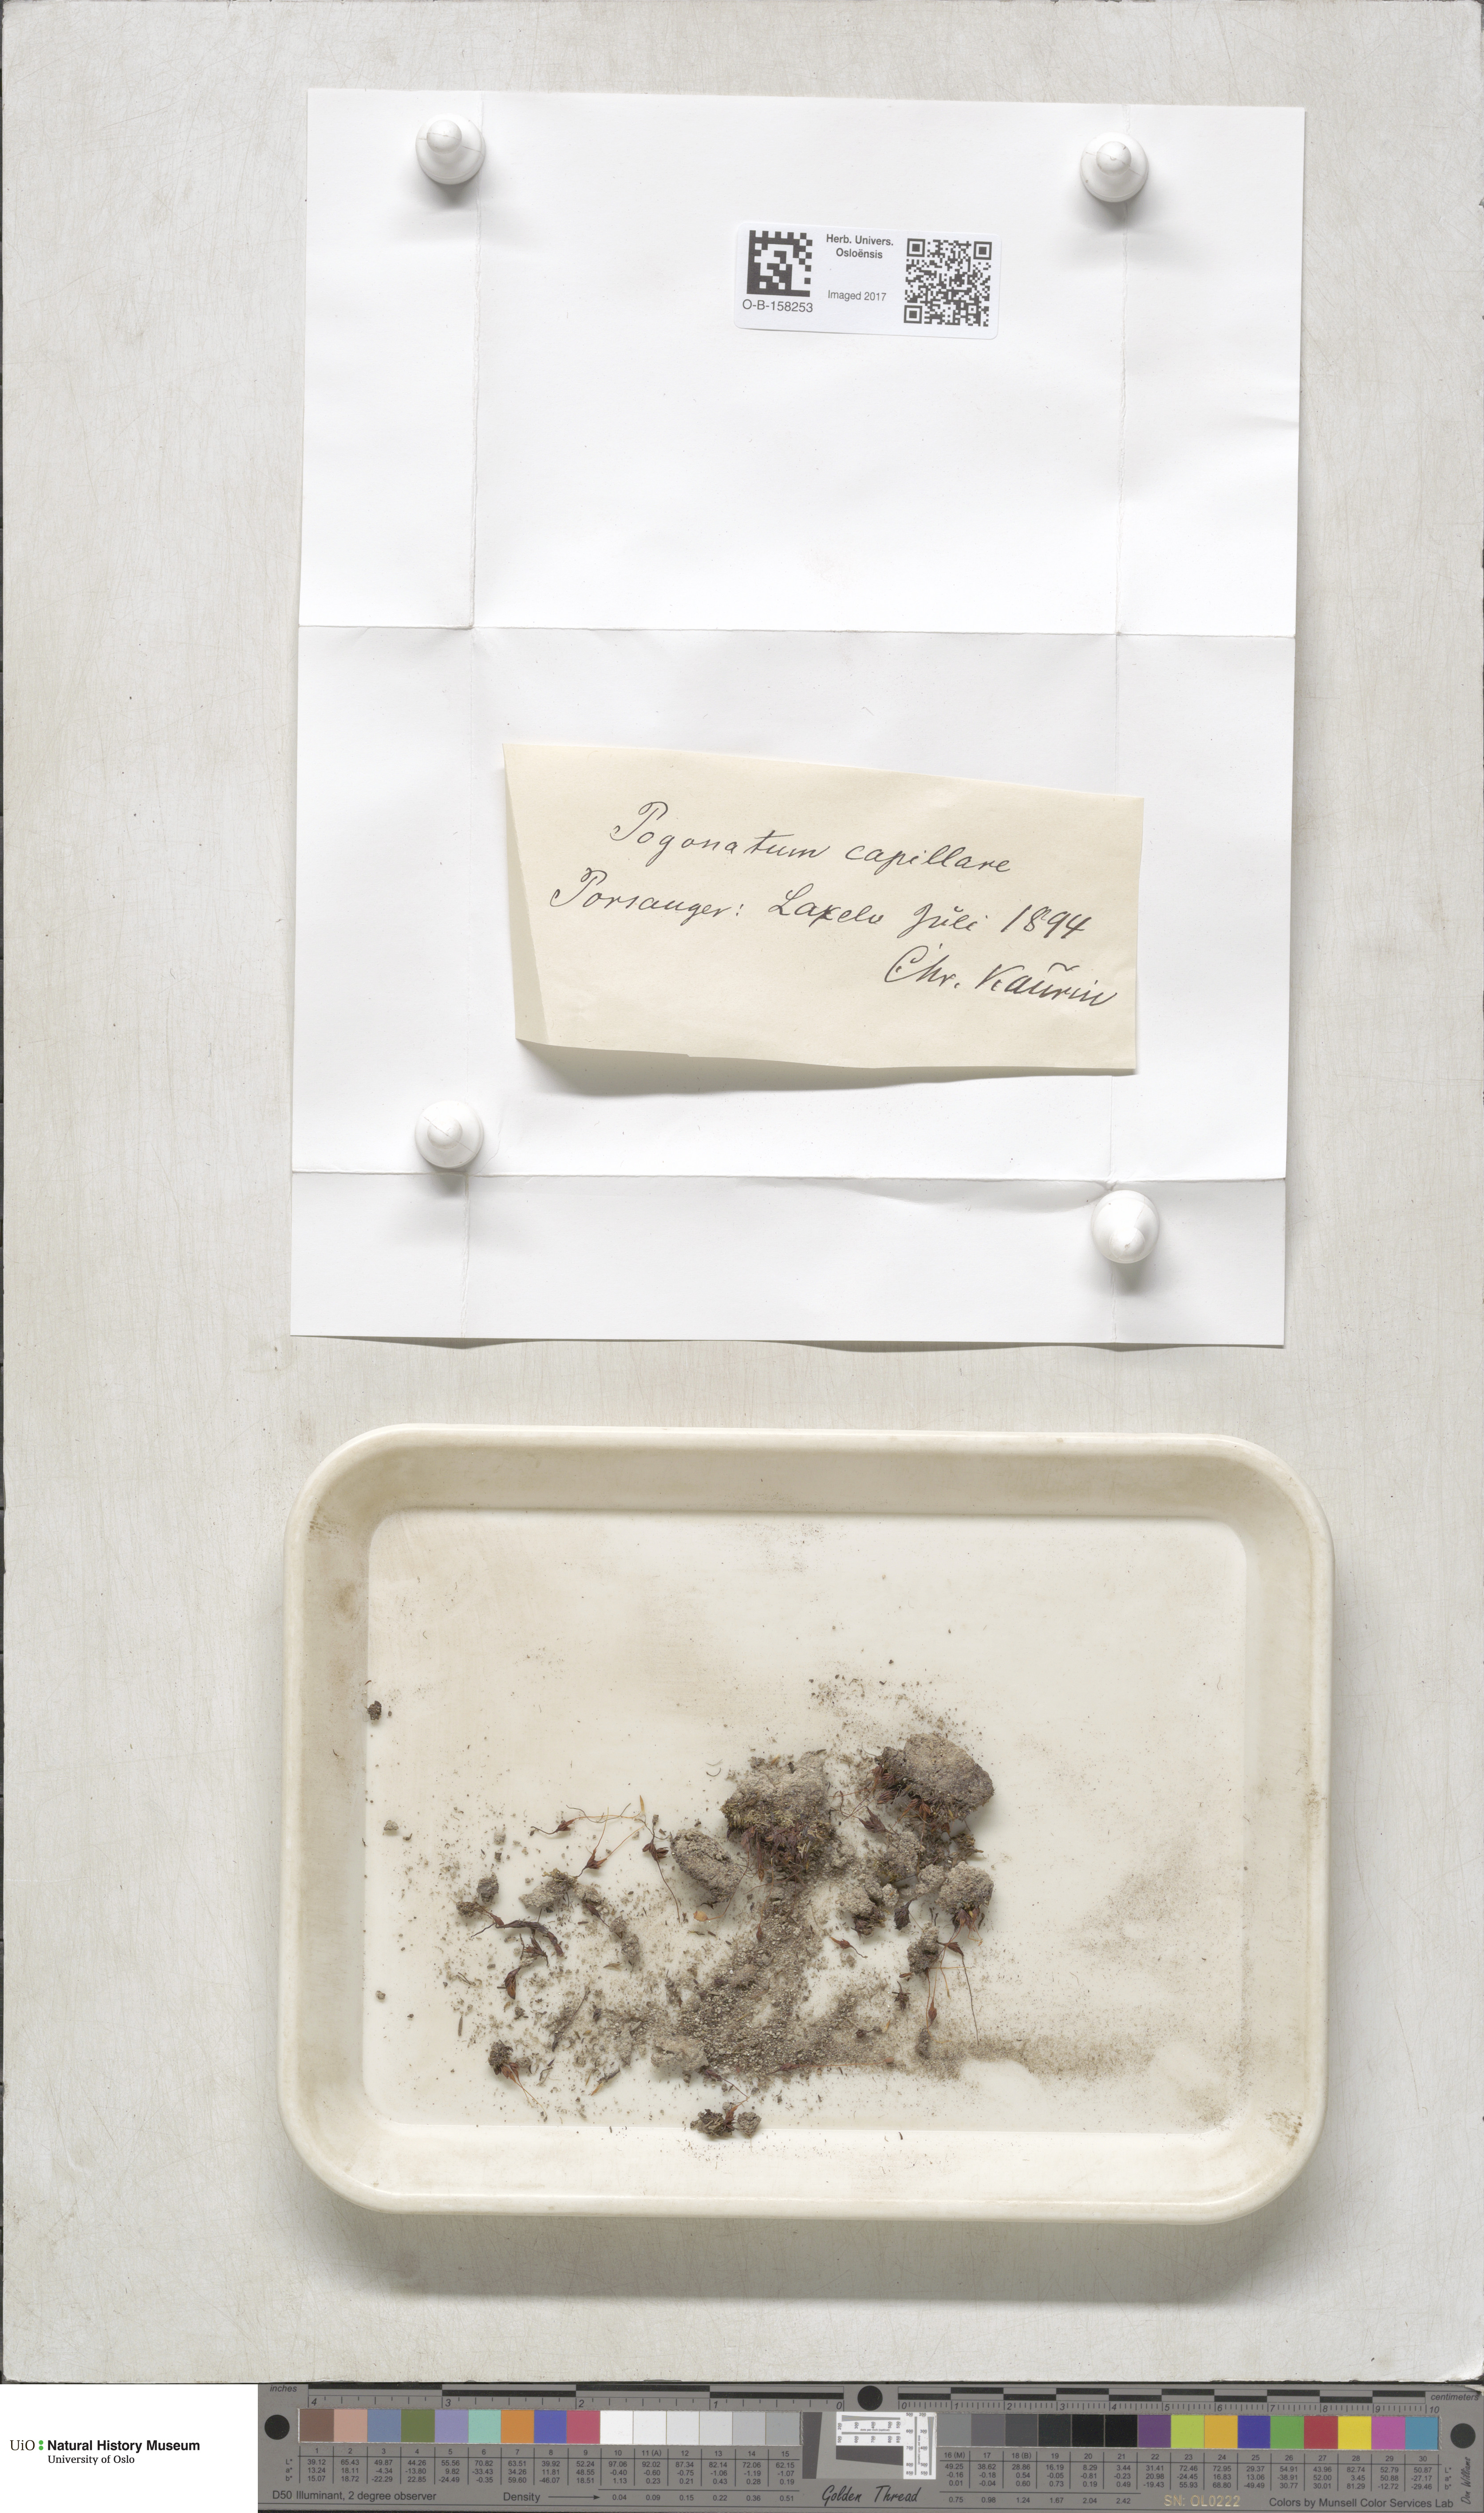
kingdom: Plantae
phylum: Bryophyta
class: Polytrichopsida
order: Polytrichales
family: Polytrichaceae
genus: Pogonatum
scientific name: Pogonatum dentatum
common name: Mountain hair moss
